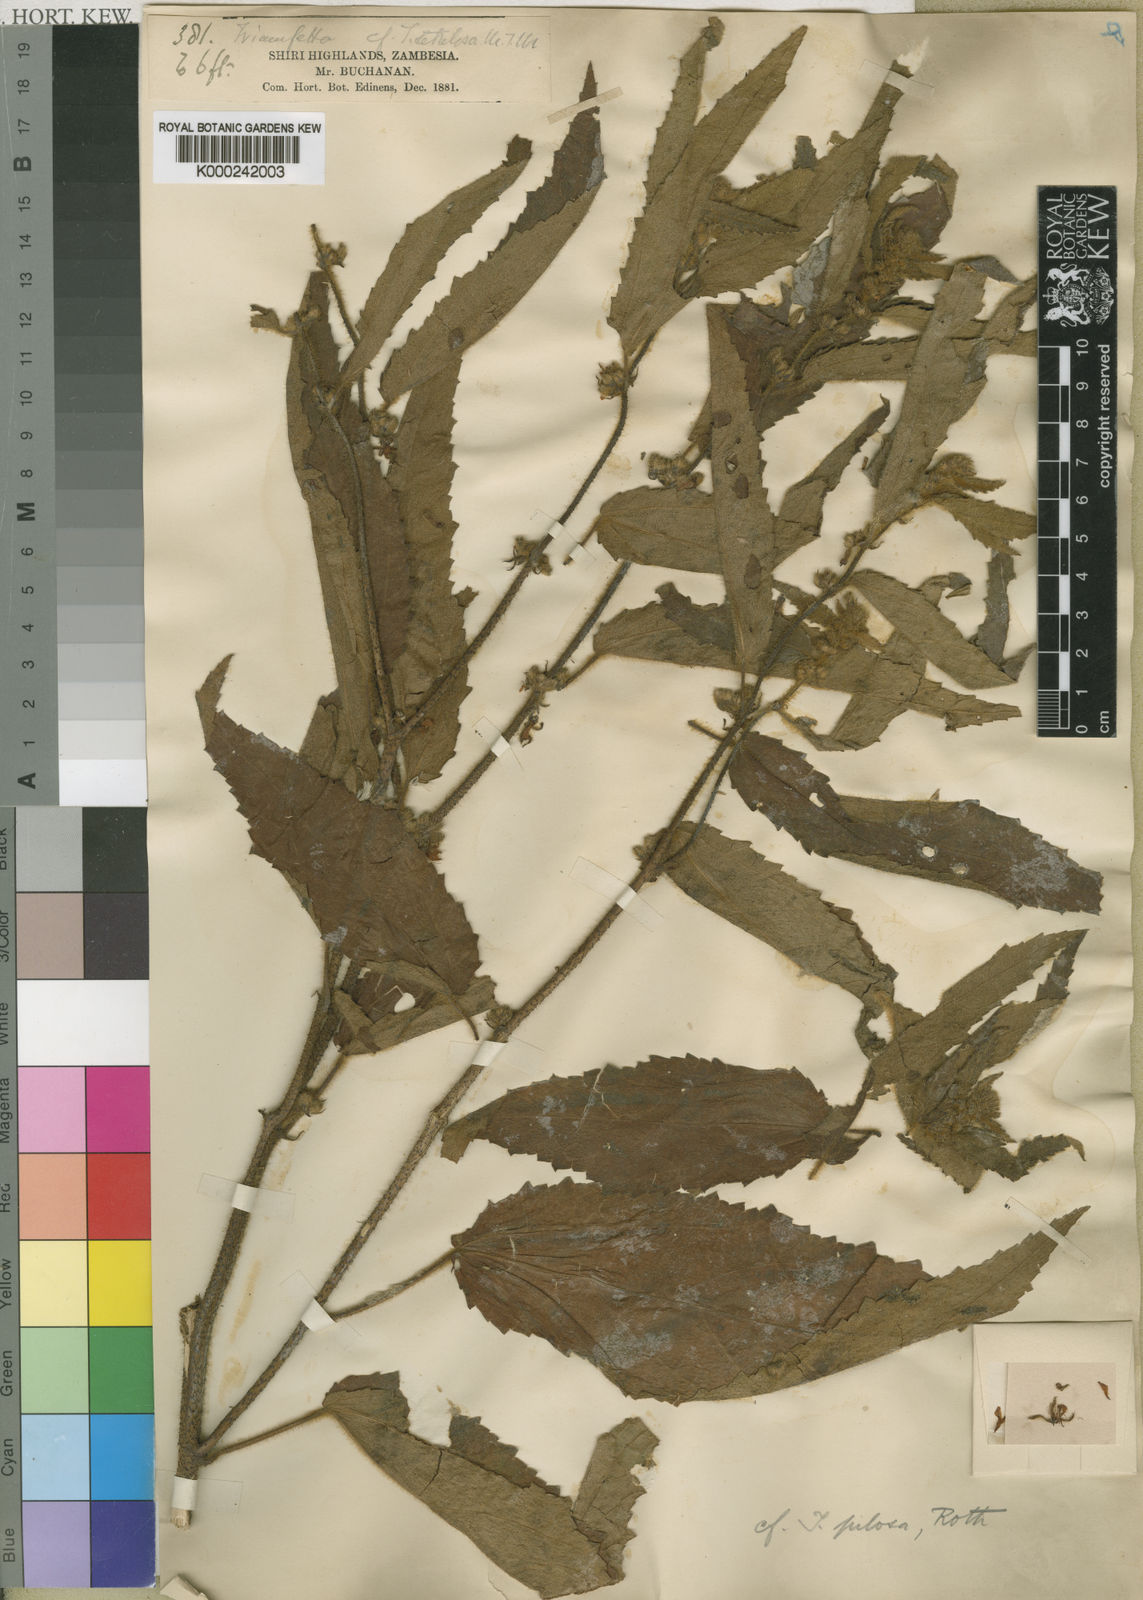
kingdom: Plantae
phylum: Tracheophyta
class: Magnoliopsida
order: Malvales
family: Malvaceae
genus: Triumfetta
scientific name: Triumfetta pilosa
